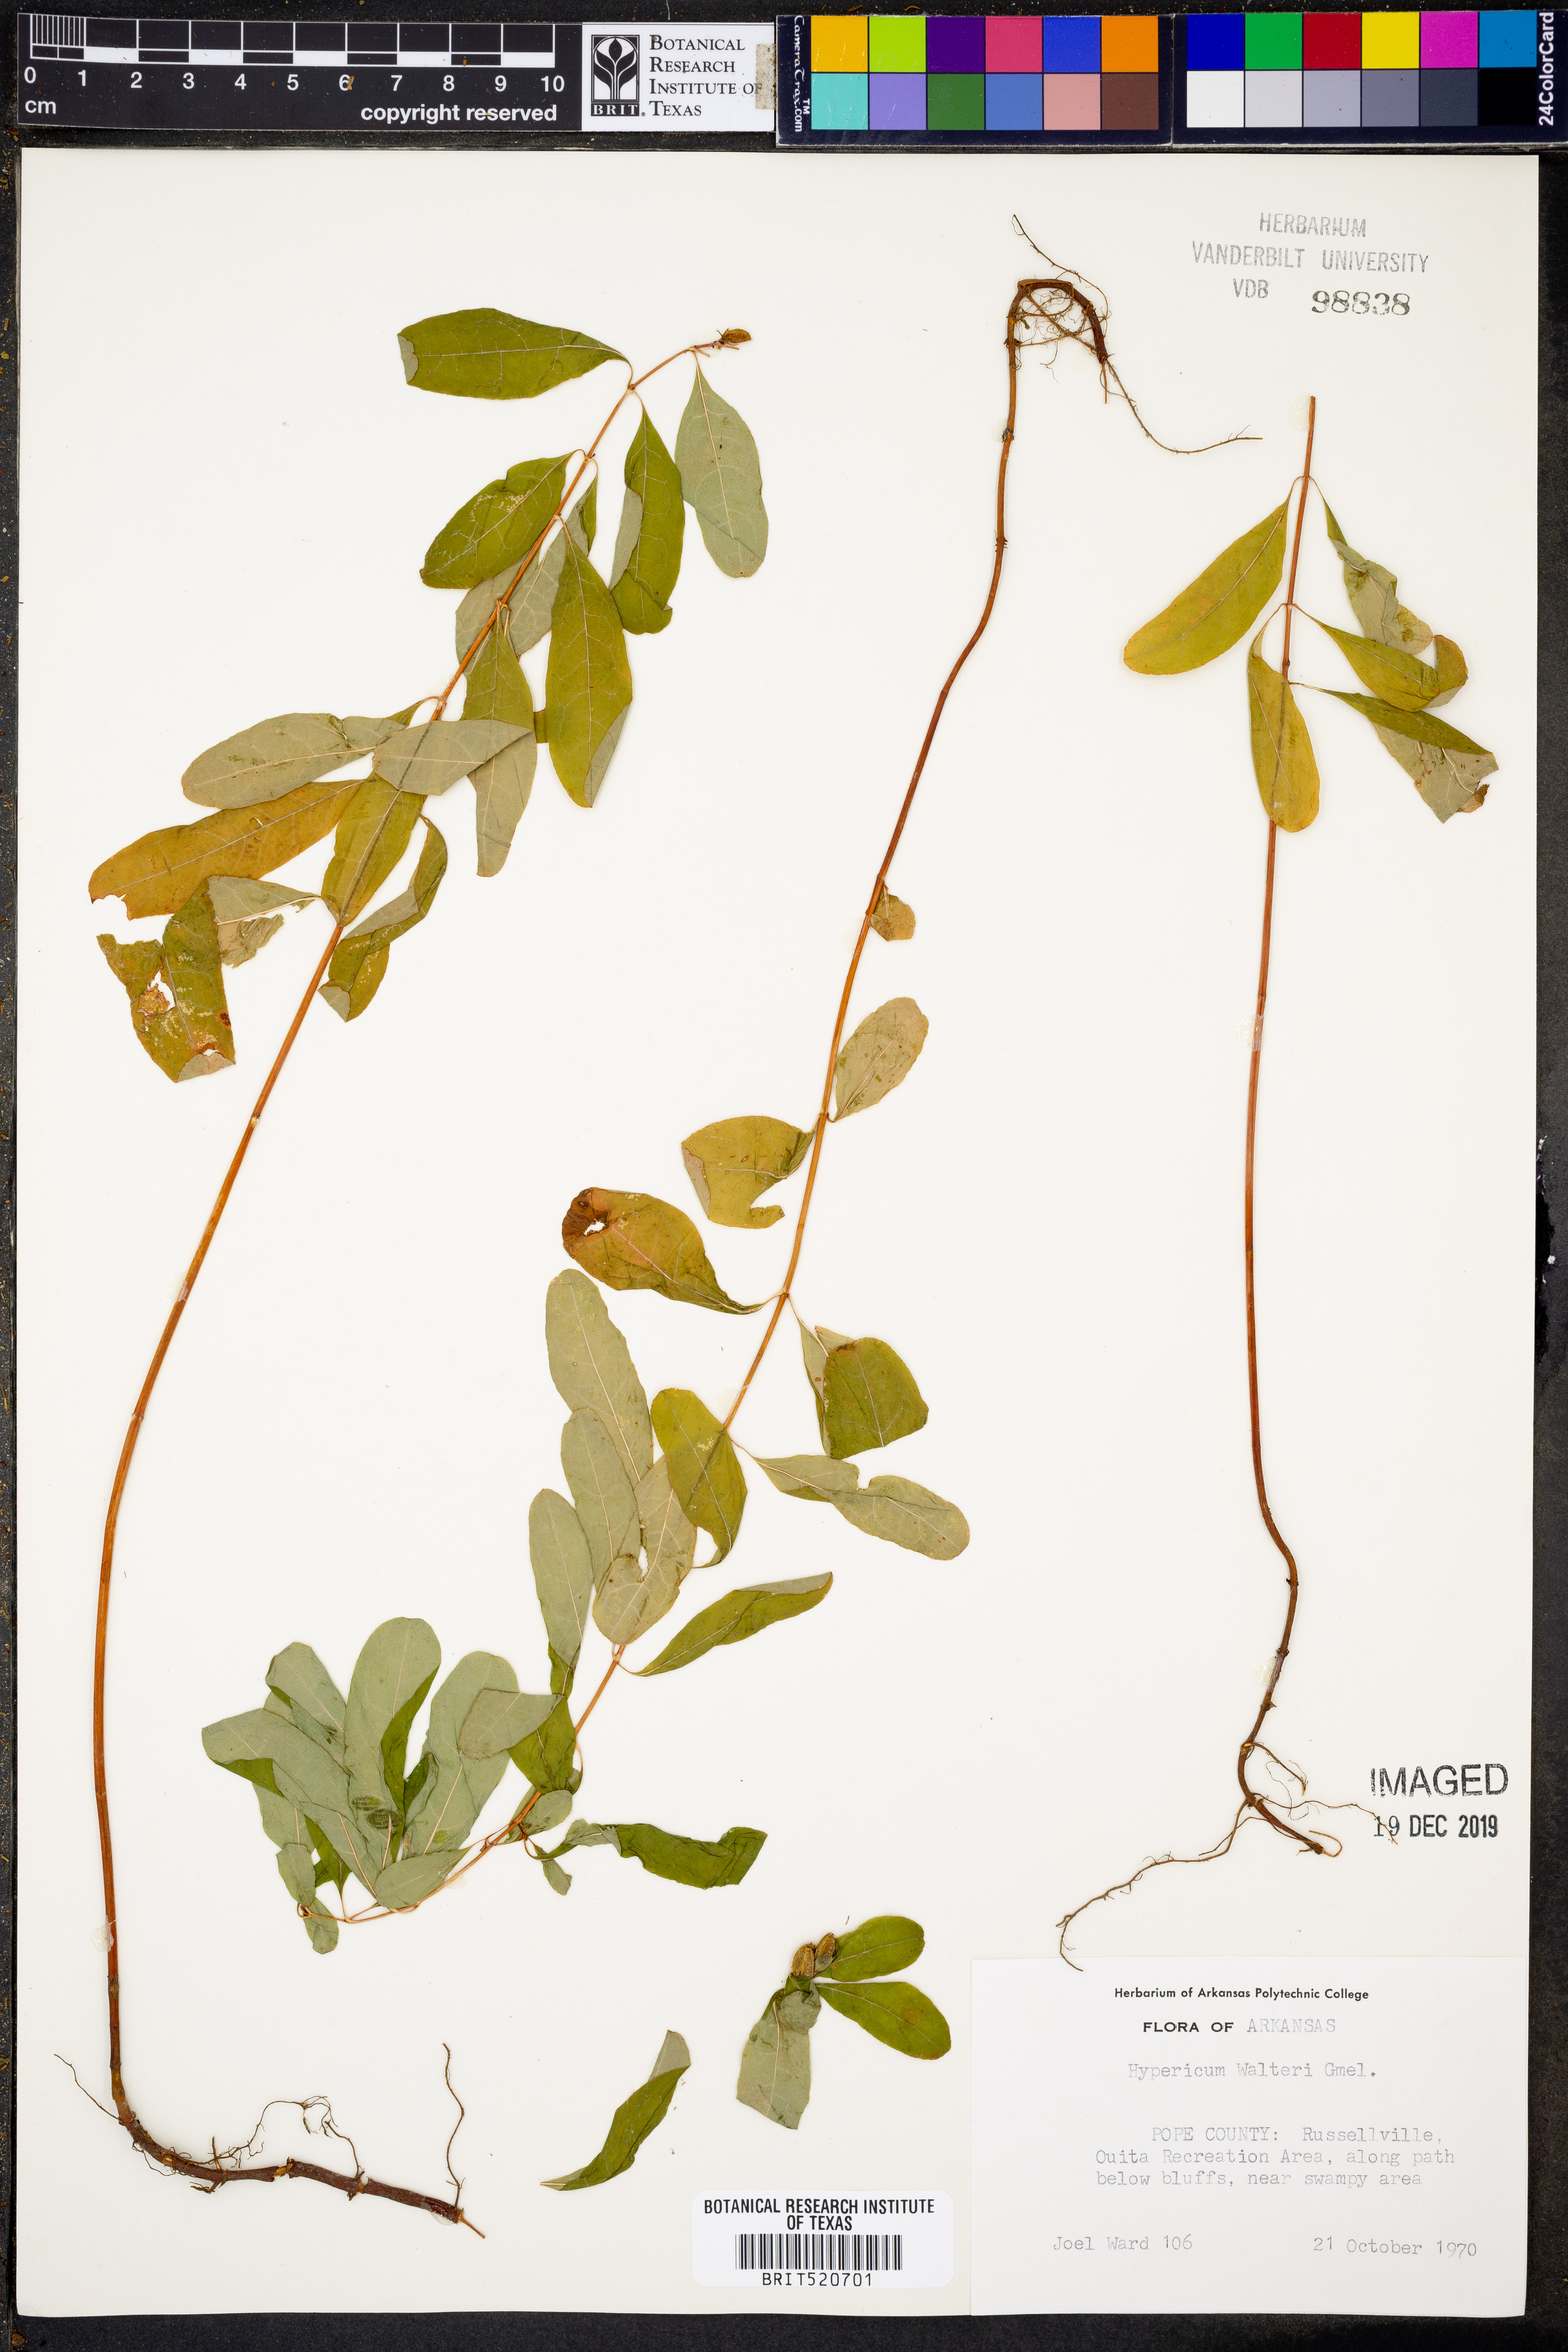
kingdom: Plantae
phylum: Tracheophyta
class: Magnoliopsida
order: Malpighiales
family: Hypericaceae
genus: Triadenum
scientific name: Triadenum walteri
